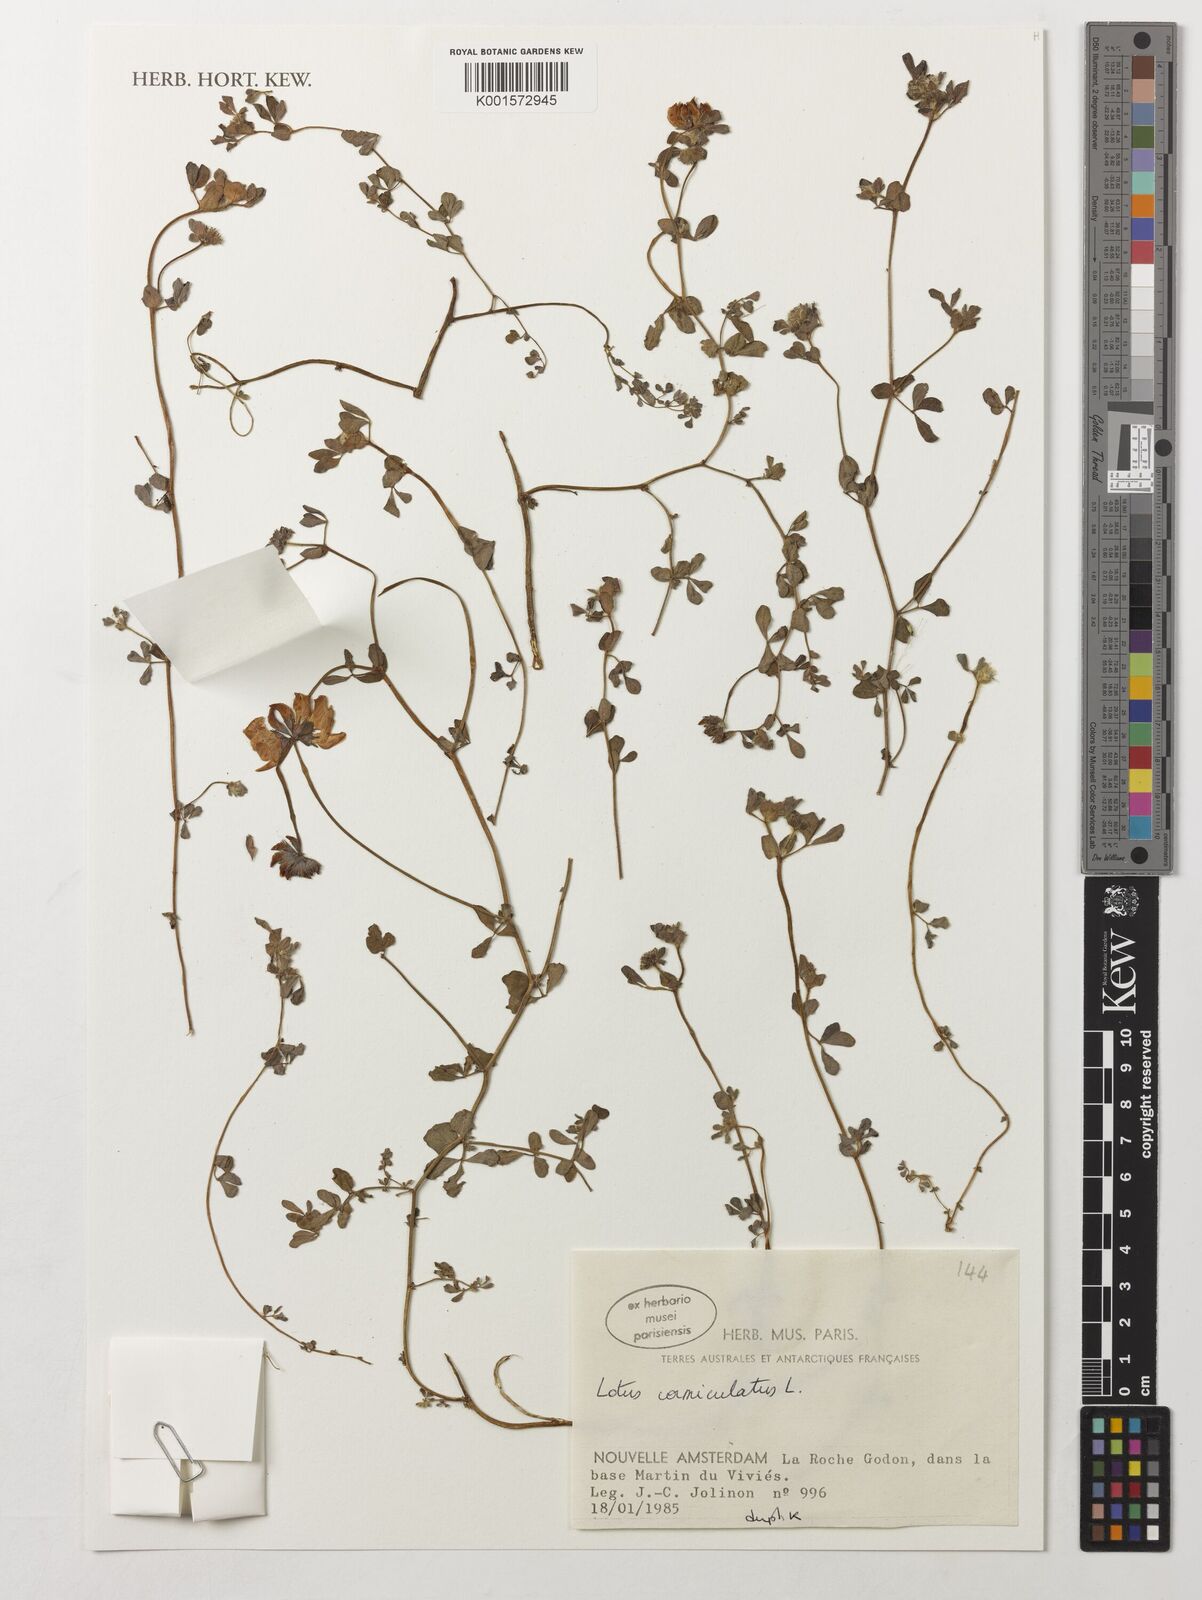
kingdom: Plantae
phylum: Tracheophyta
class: Magnoliopsida
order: Fabales
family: Fabaceae
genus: Lotus
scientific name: Lotus corniculatus
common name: Common bird's-foot-trefoil
